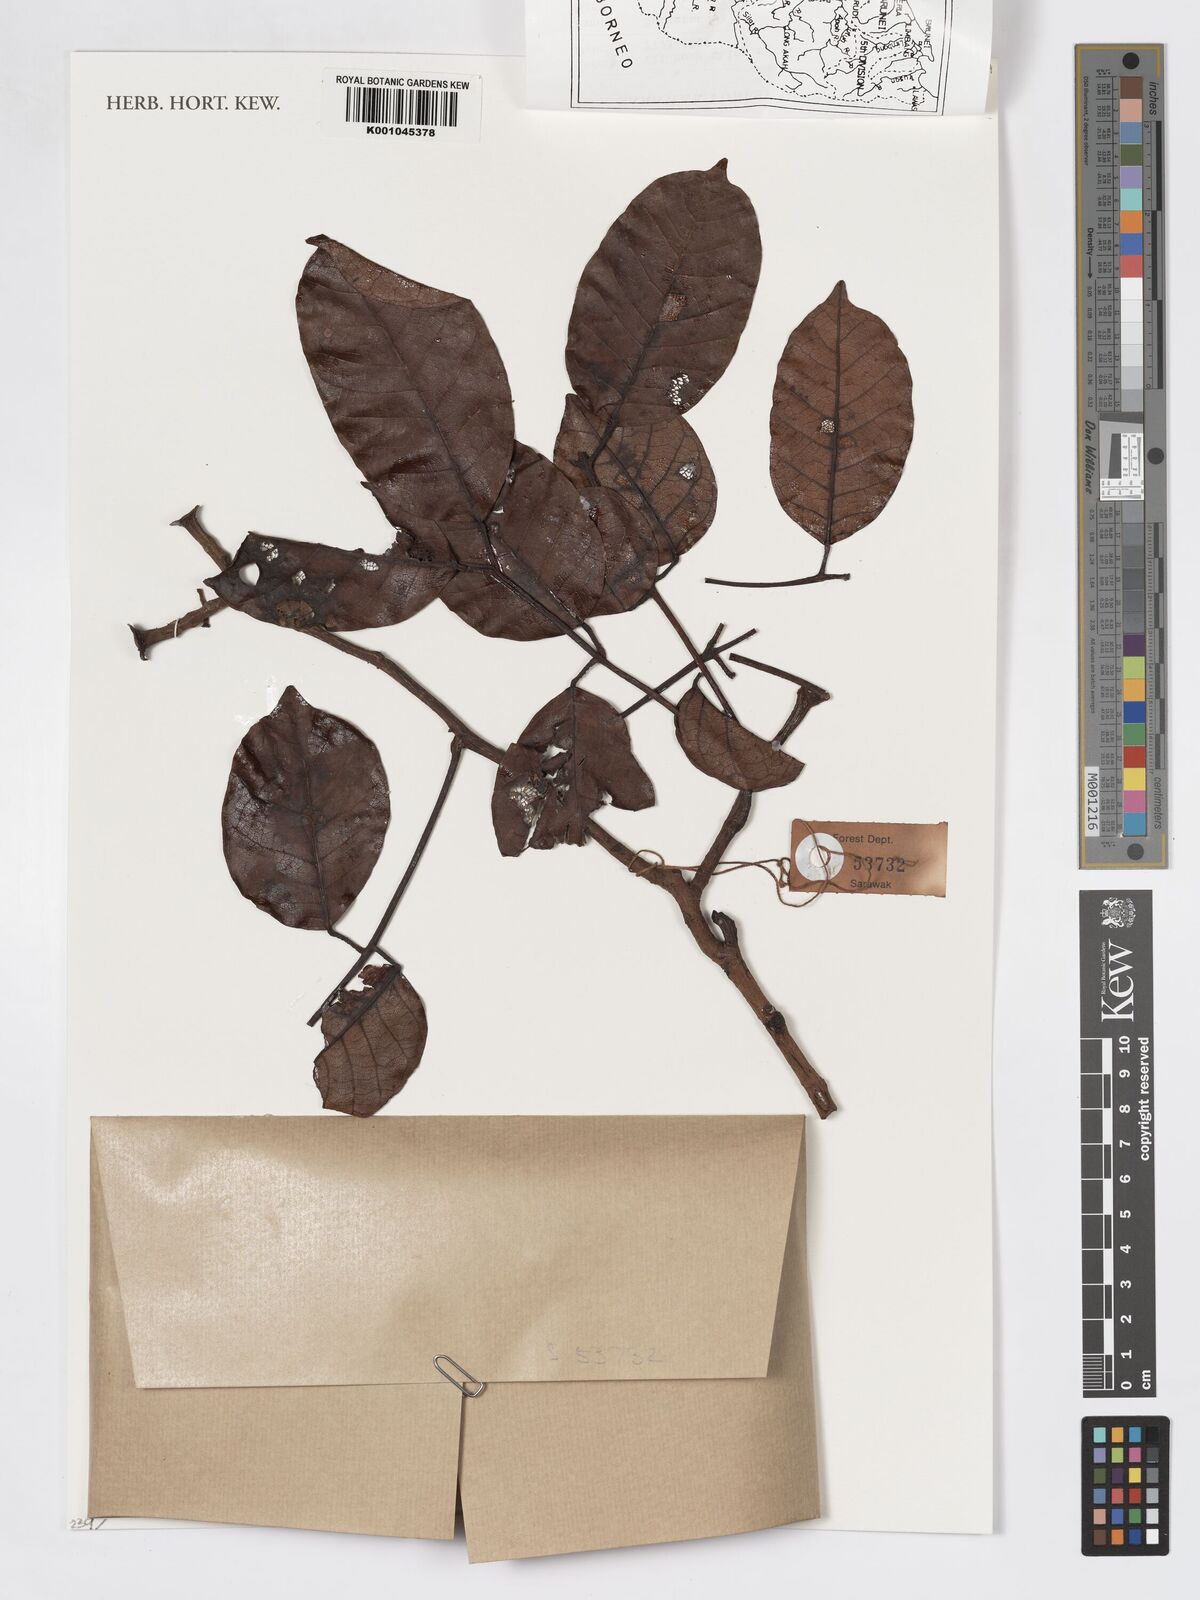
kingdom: Plantae
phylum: Tracheophyta
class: Magnoliopsida
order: Sapindales
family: Burseraceae
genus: Canarium
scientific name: Canarium
